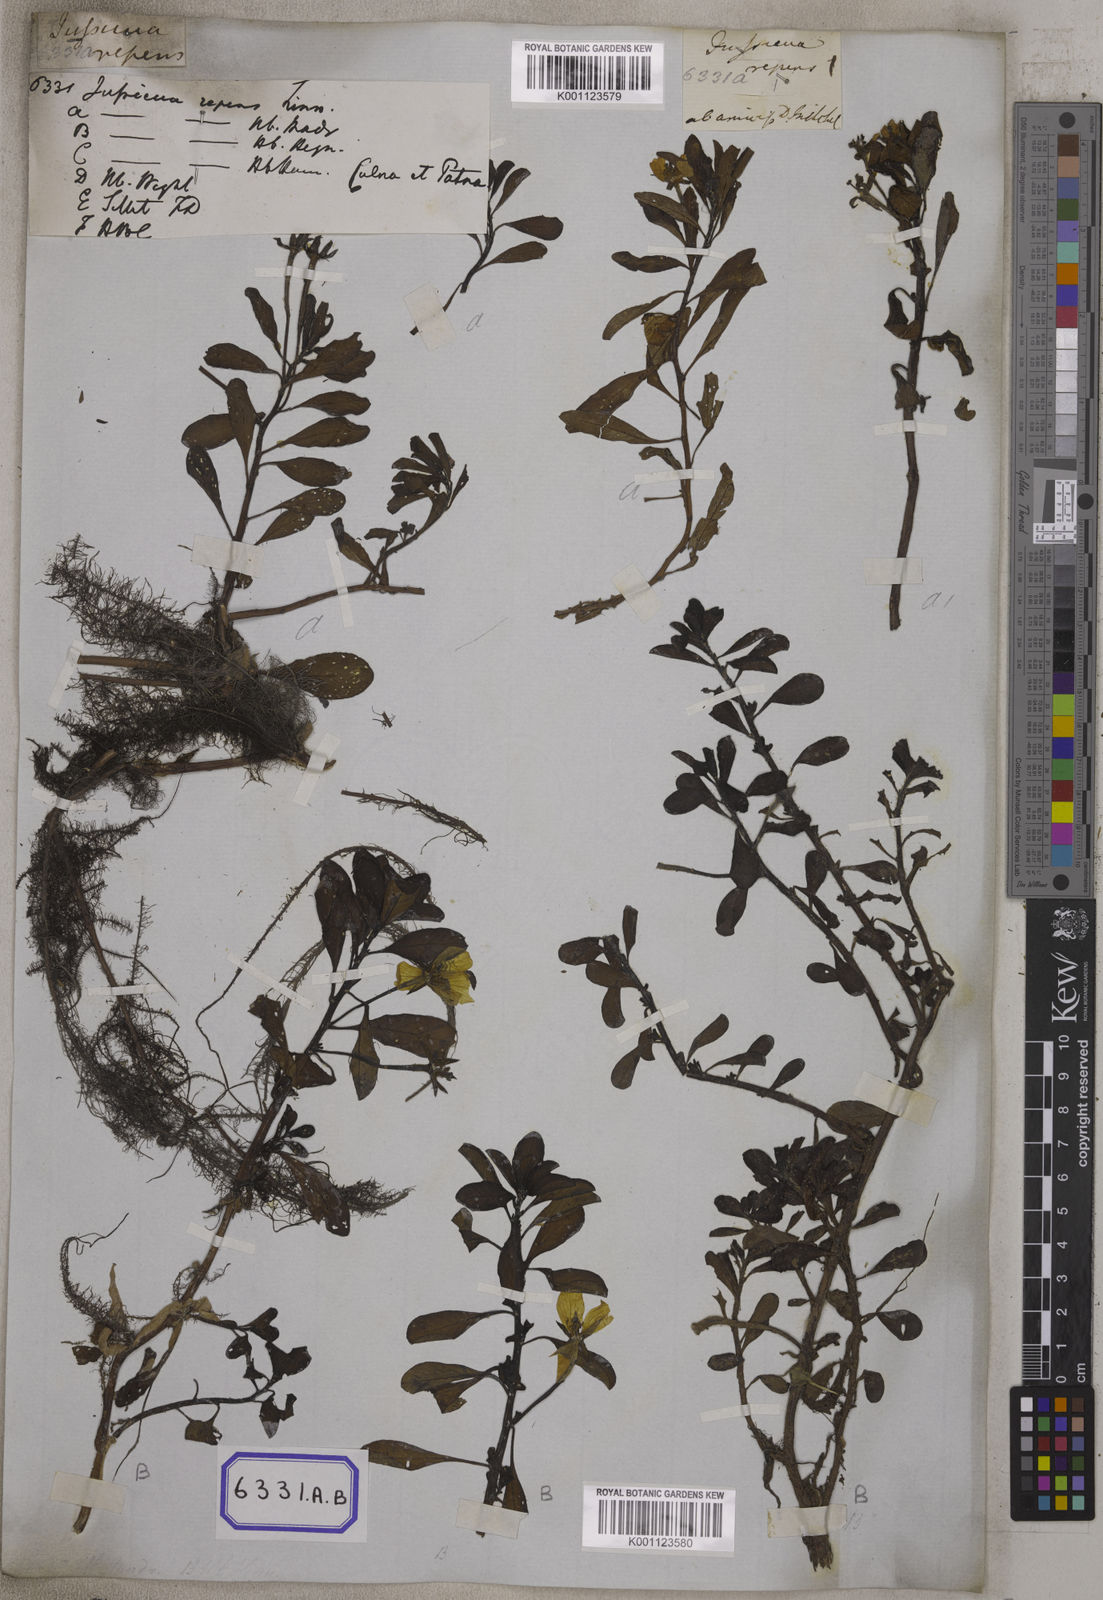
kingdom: Plantae
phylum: Tracheophyta
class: Magnoliopsida
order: Myrtales
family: Onagraceae
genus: Ludwigia
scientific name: Ludwigia adscendens
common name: Creeping water primrose
